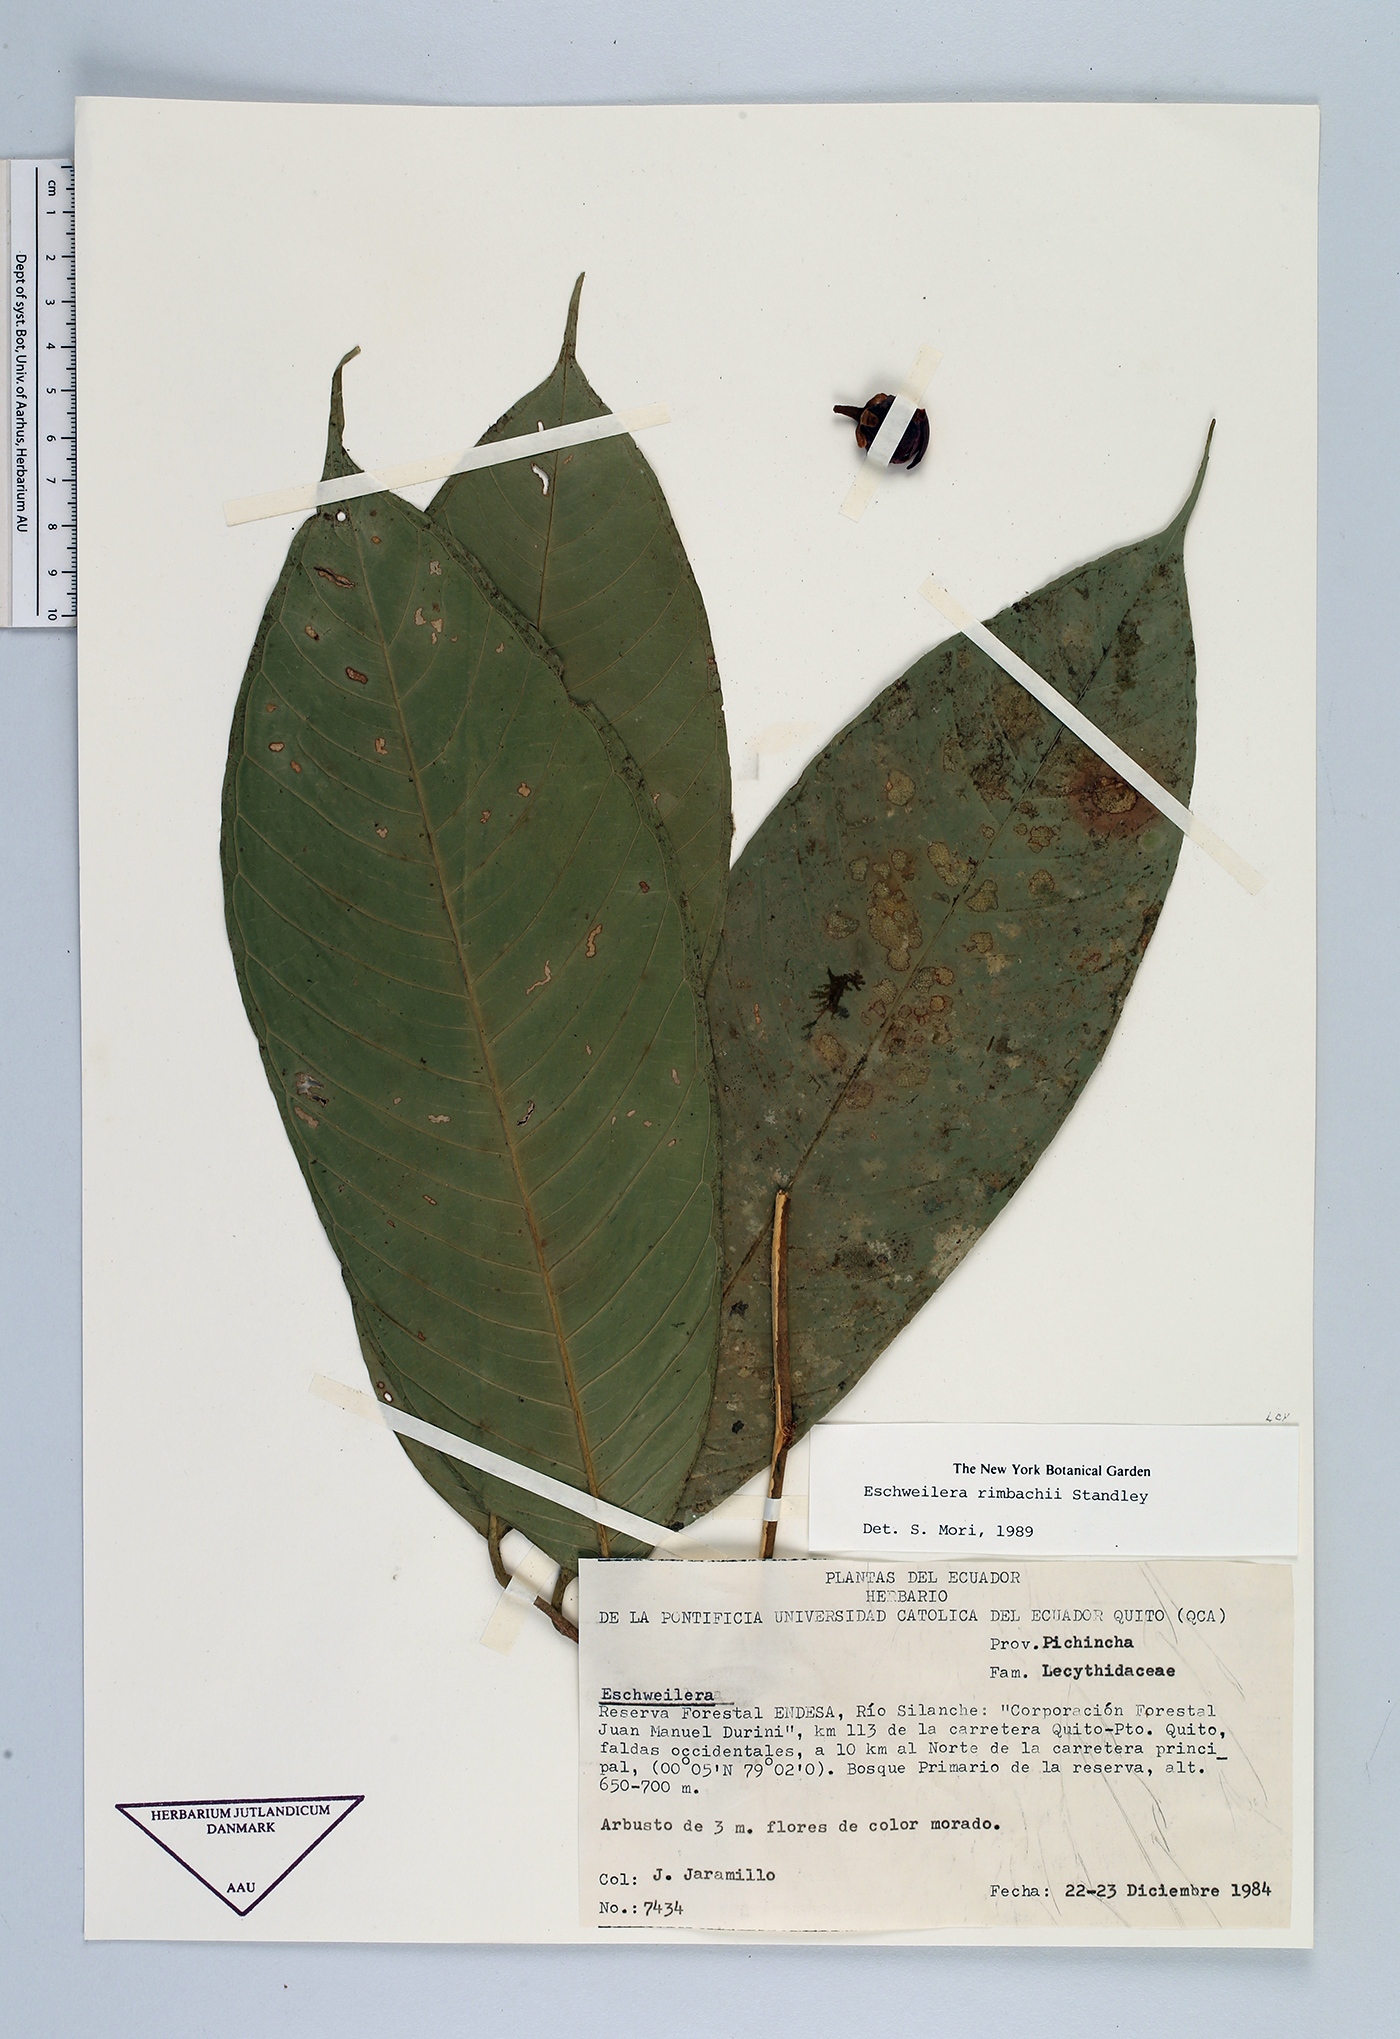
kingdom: Plantae
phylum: Tracheophyta
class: Magnoliopsida
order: Ericales
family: Lecythidaceae
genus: Eschweilera
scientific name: Eschweilera rimbachii
